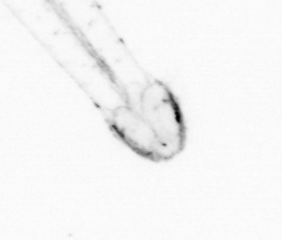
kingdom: Animalia
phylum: Chaetognatha
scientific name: Chaetognatha
